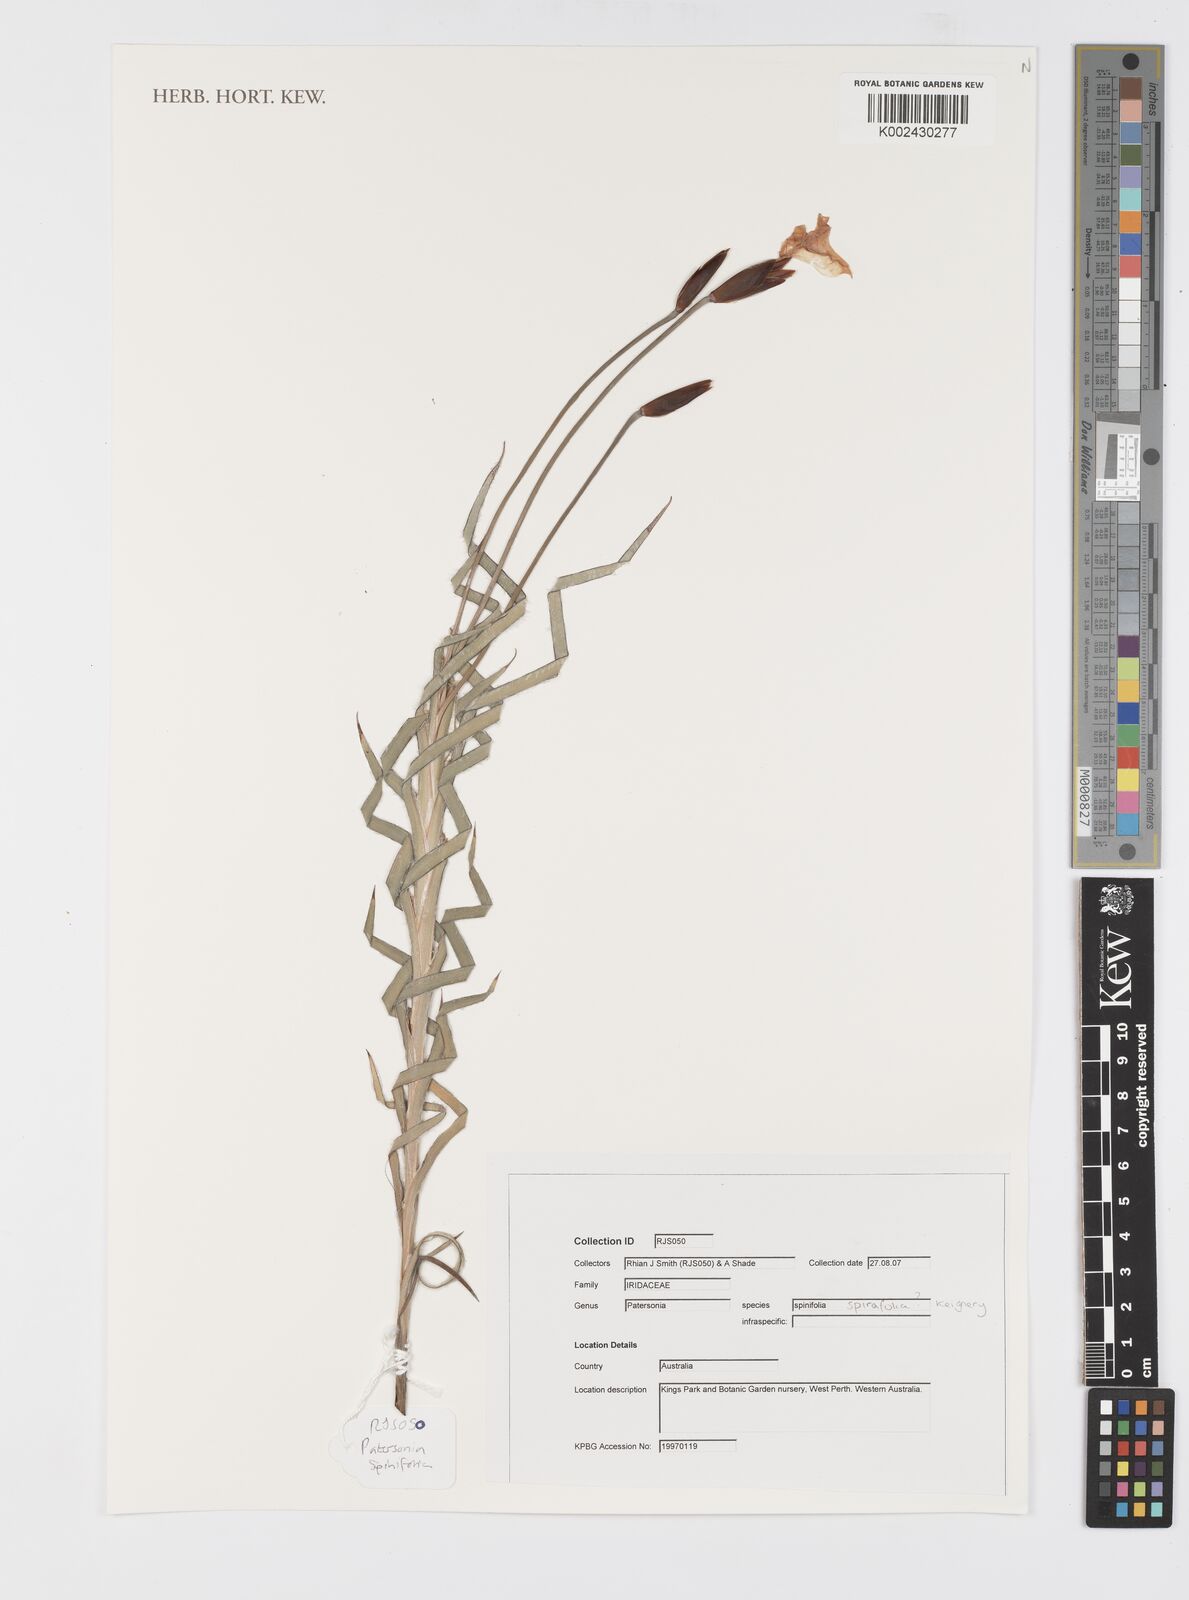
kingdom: Plantae
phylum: Tracheophyta
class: Liliopsida
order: Asparagales
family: Iridaceae
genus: Patersonia
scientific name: Patersonia spirafolia
